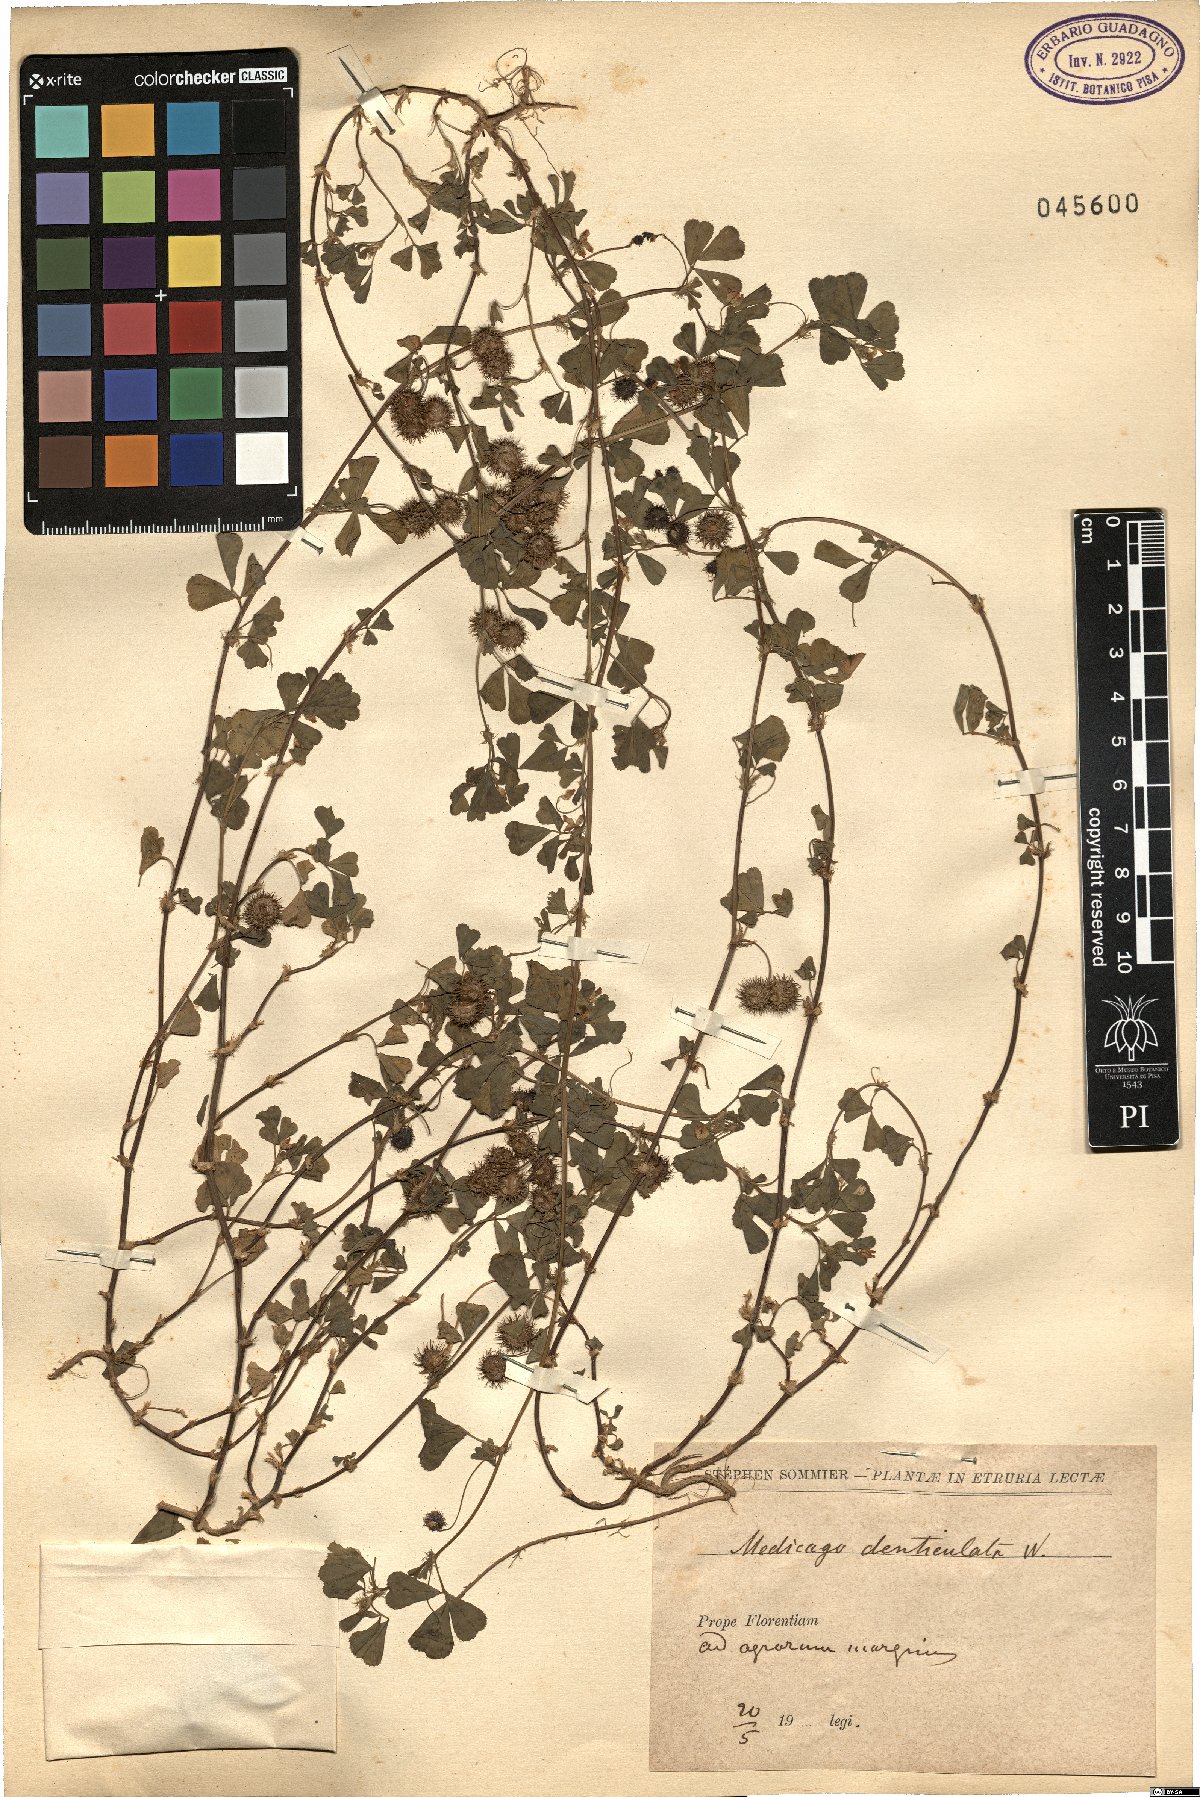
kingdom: Plantae
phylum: Tracheophyta
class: Magnoliopsida
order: Fabales
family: Fabaceae
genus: Medicago
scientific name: Medicago polymorpha
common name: Burclover
